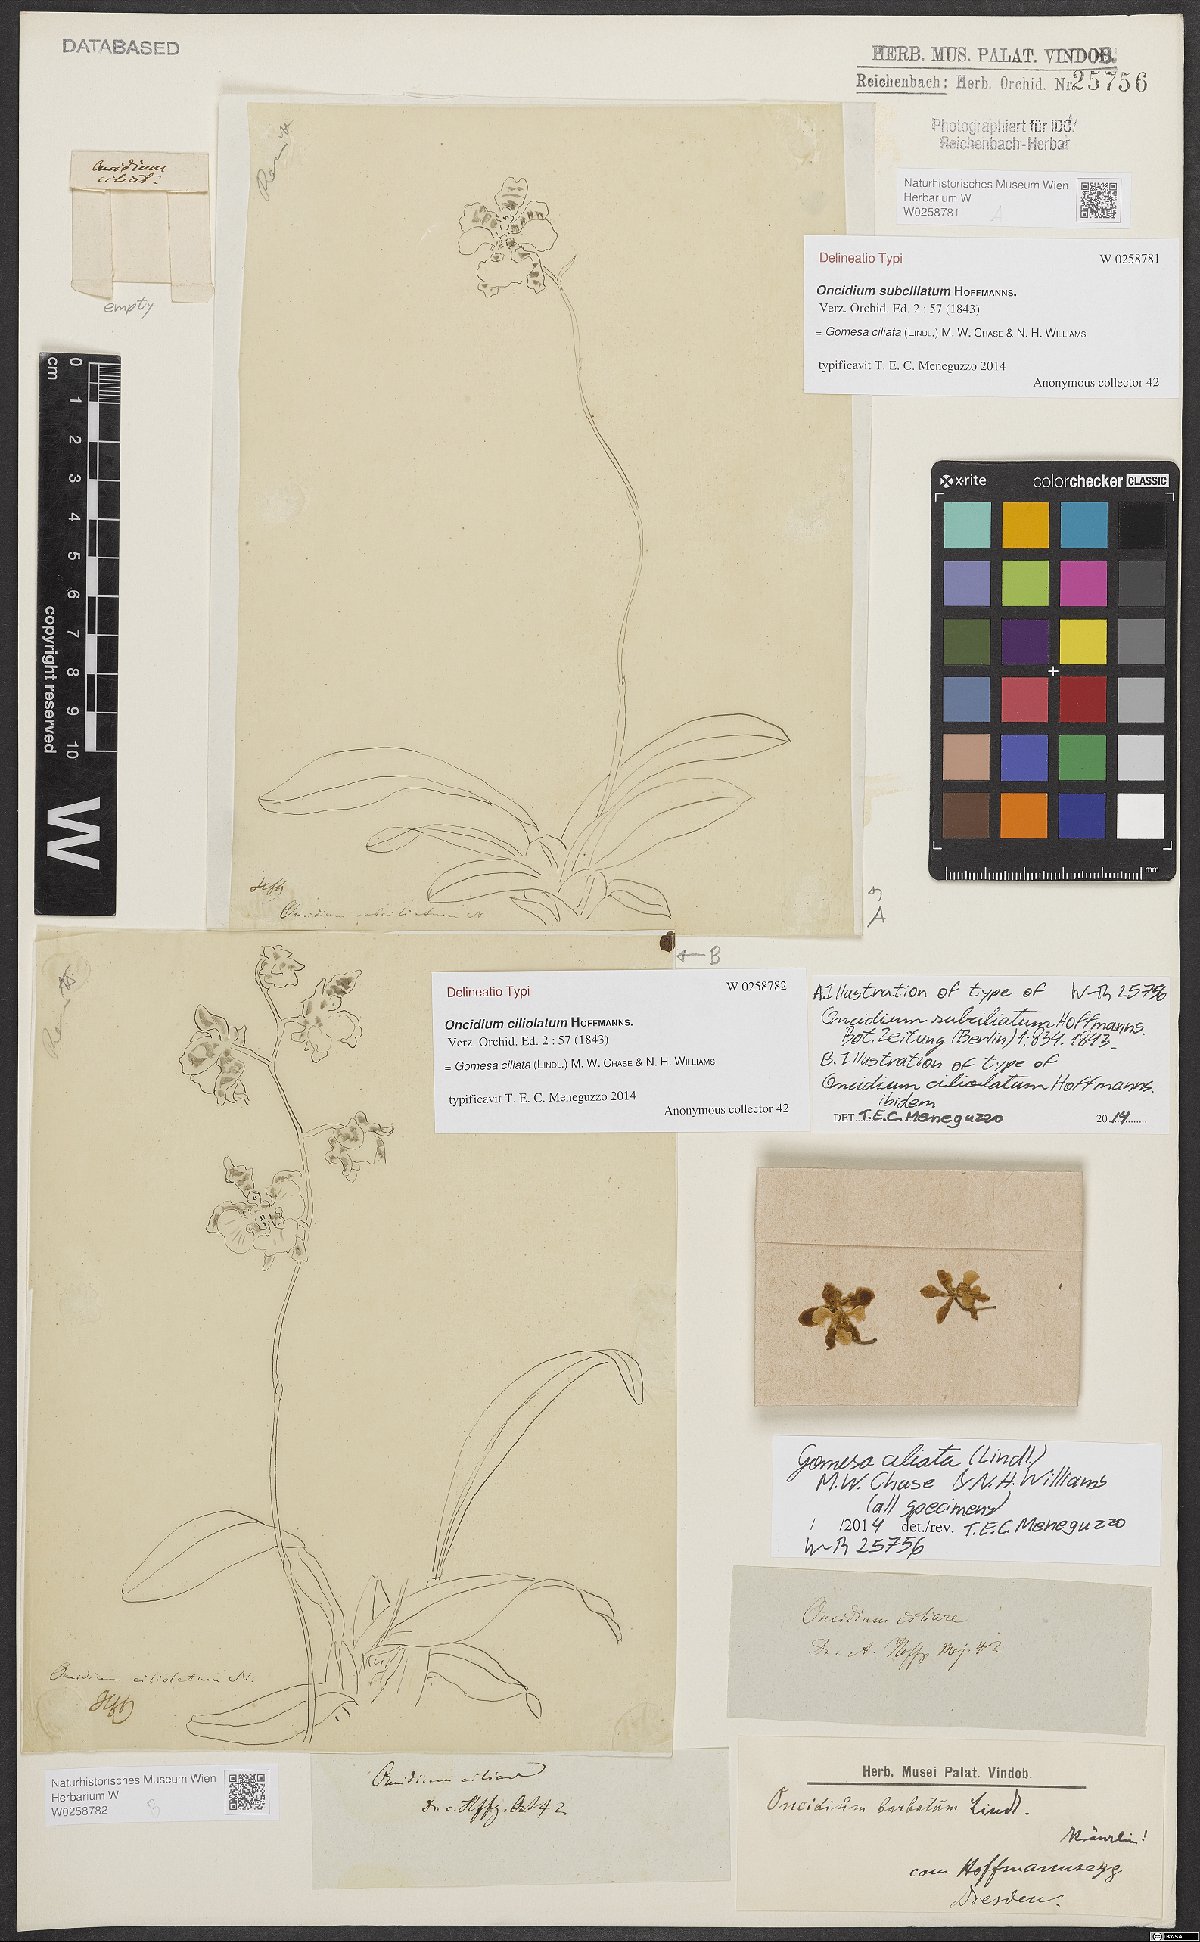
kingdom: Plantae
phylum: Tracheophyta
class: Liliopsida
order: Asparagales
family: Orchidaceae
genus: Gomesa
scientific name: Gomesa ciliata
